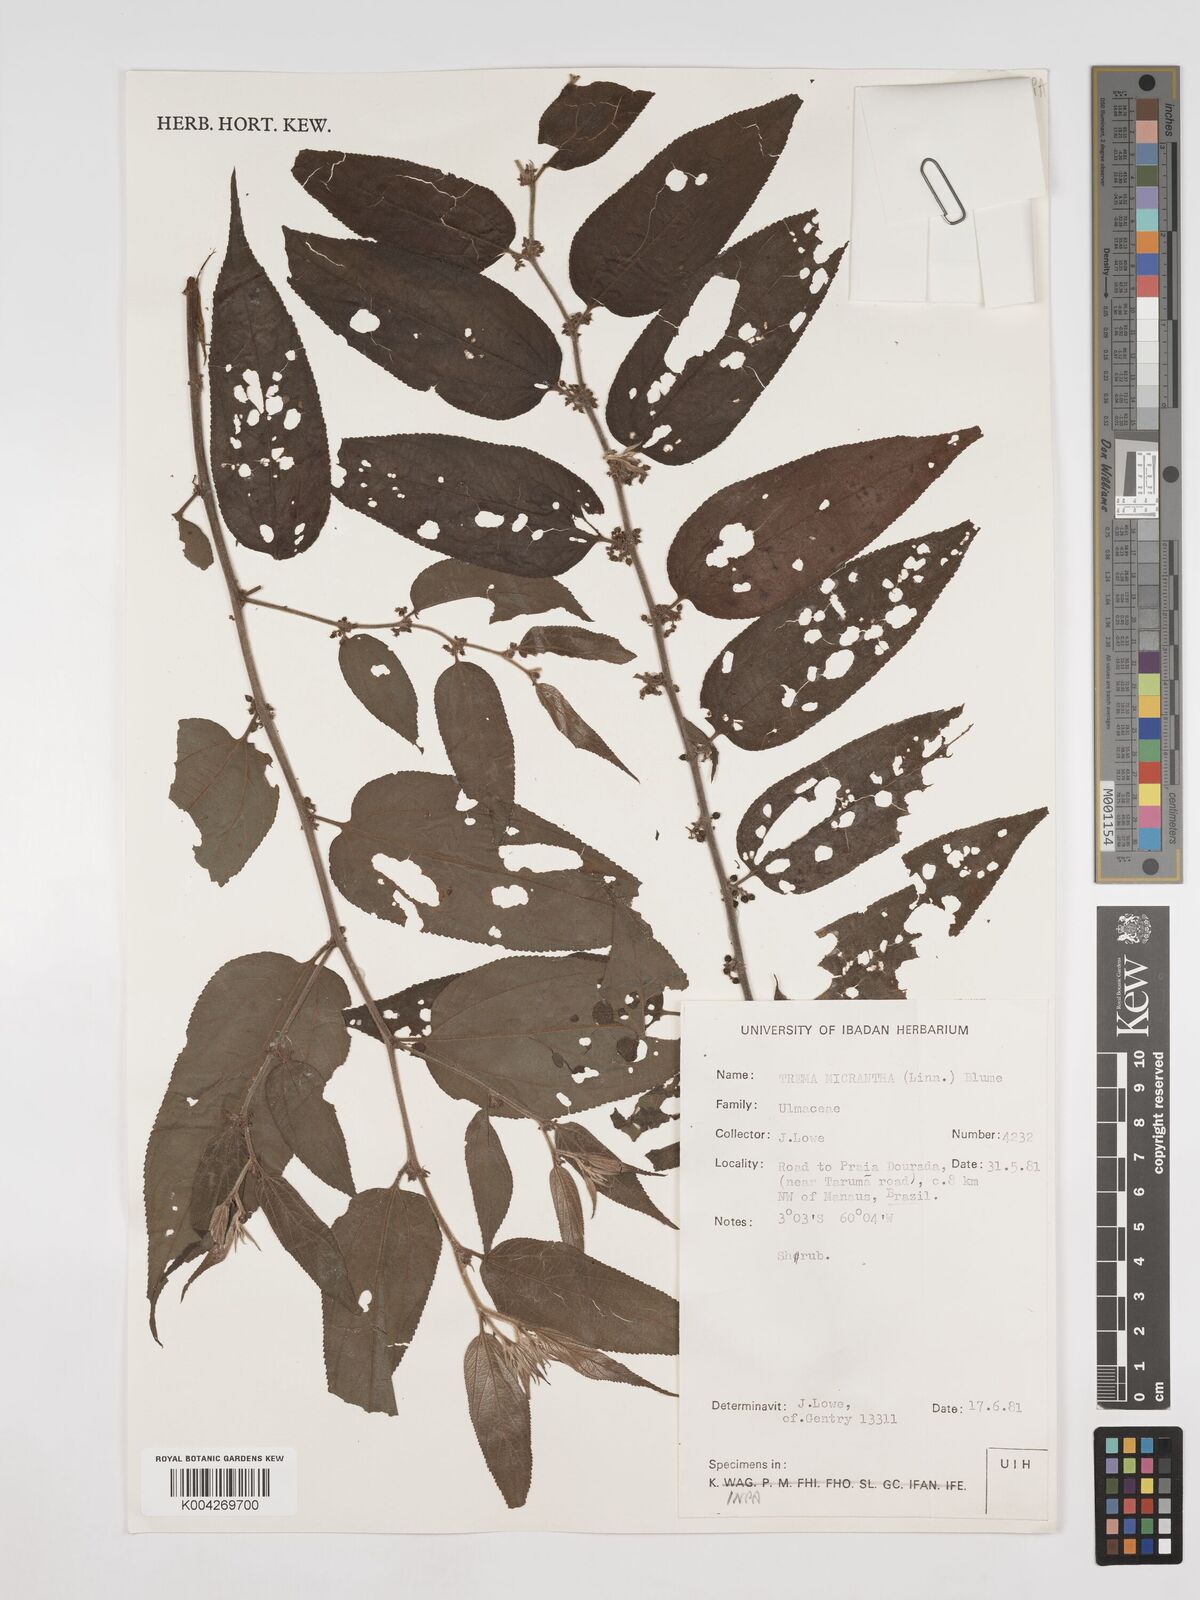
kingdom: Plantae
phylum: Tracheophyta
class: Magnoliopsida
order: Rosales
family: Cannabaceae
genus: Trema
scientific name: Trema micranthum
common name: Jamaican nettletree
